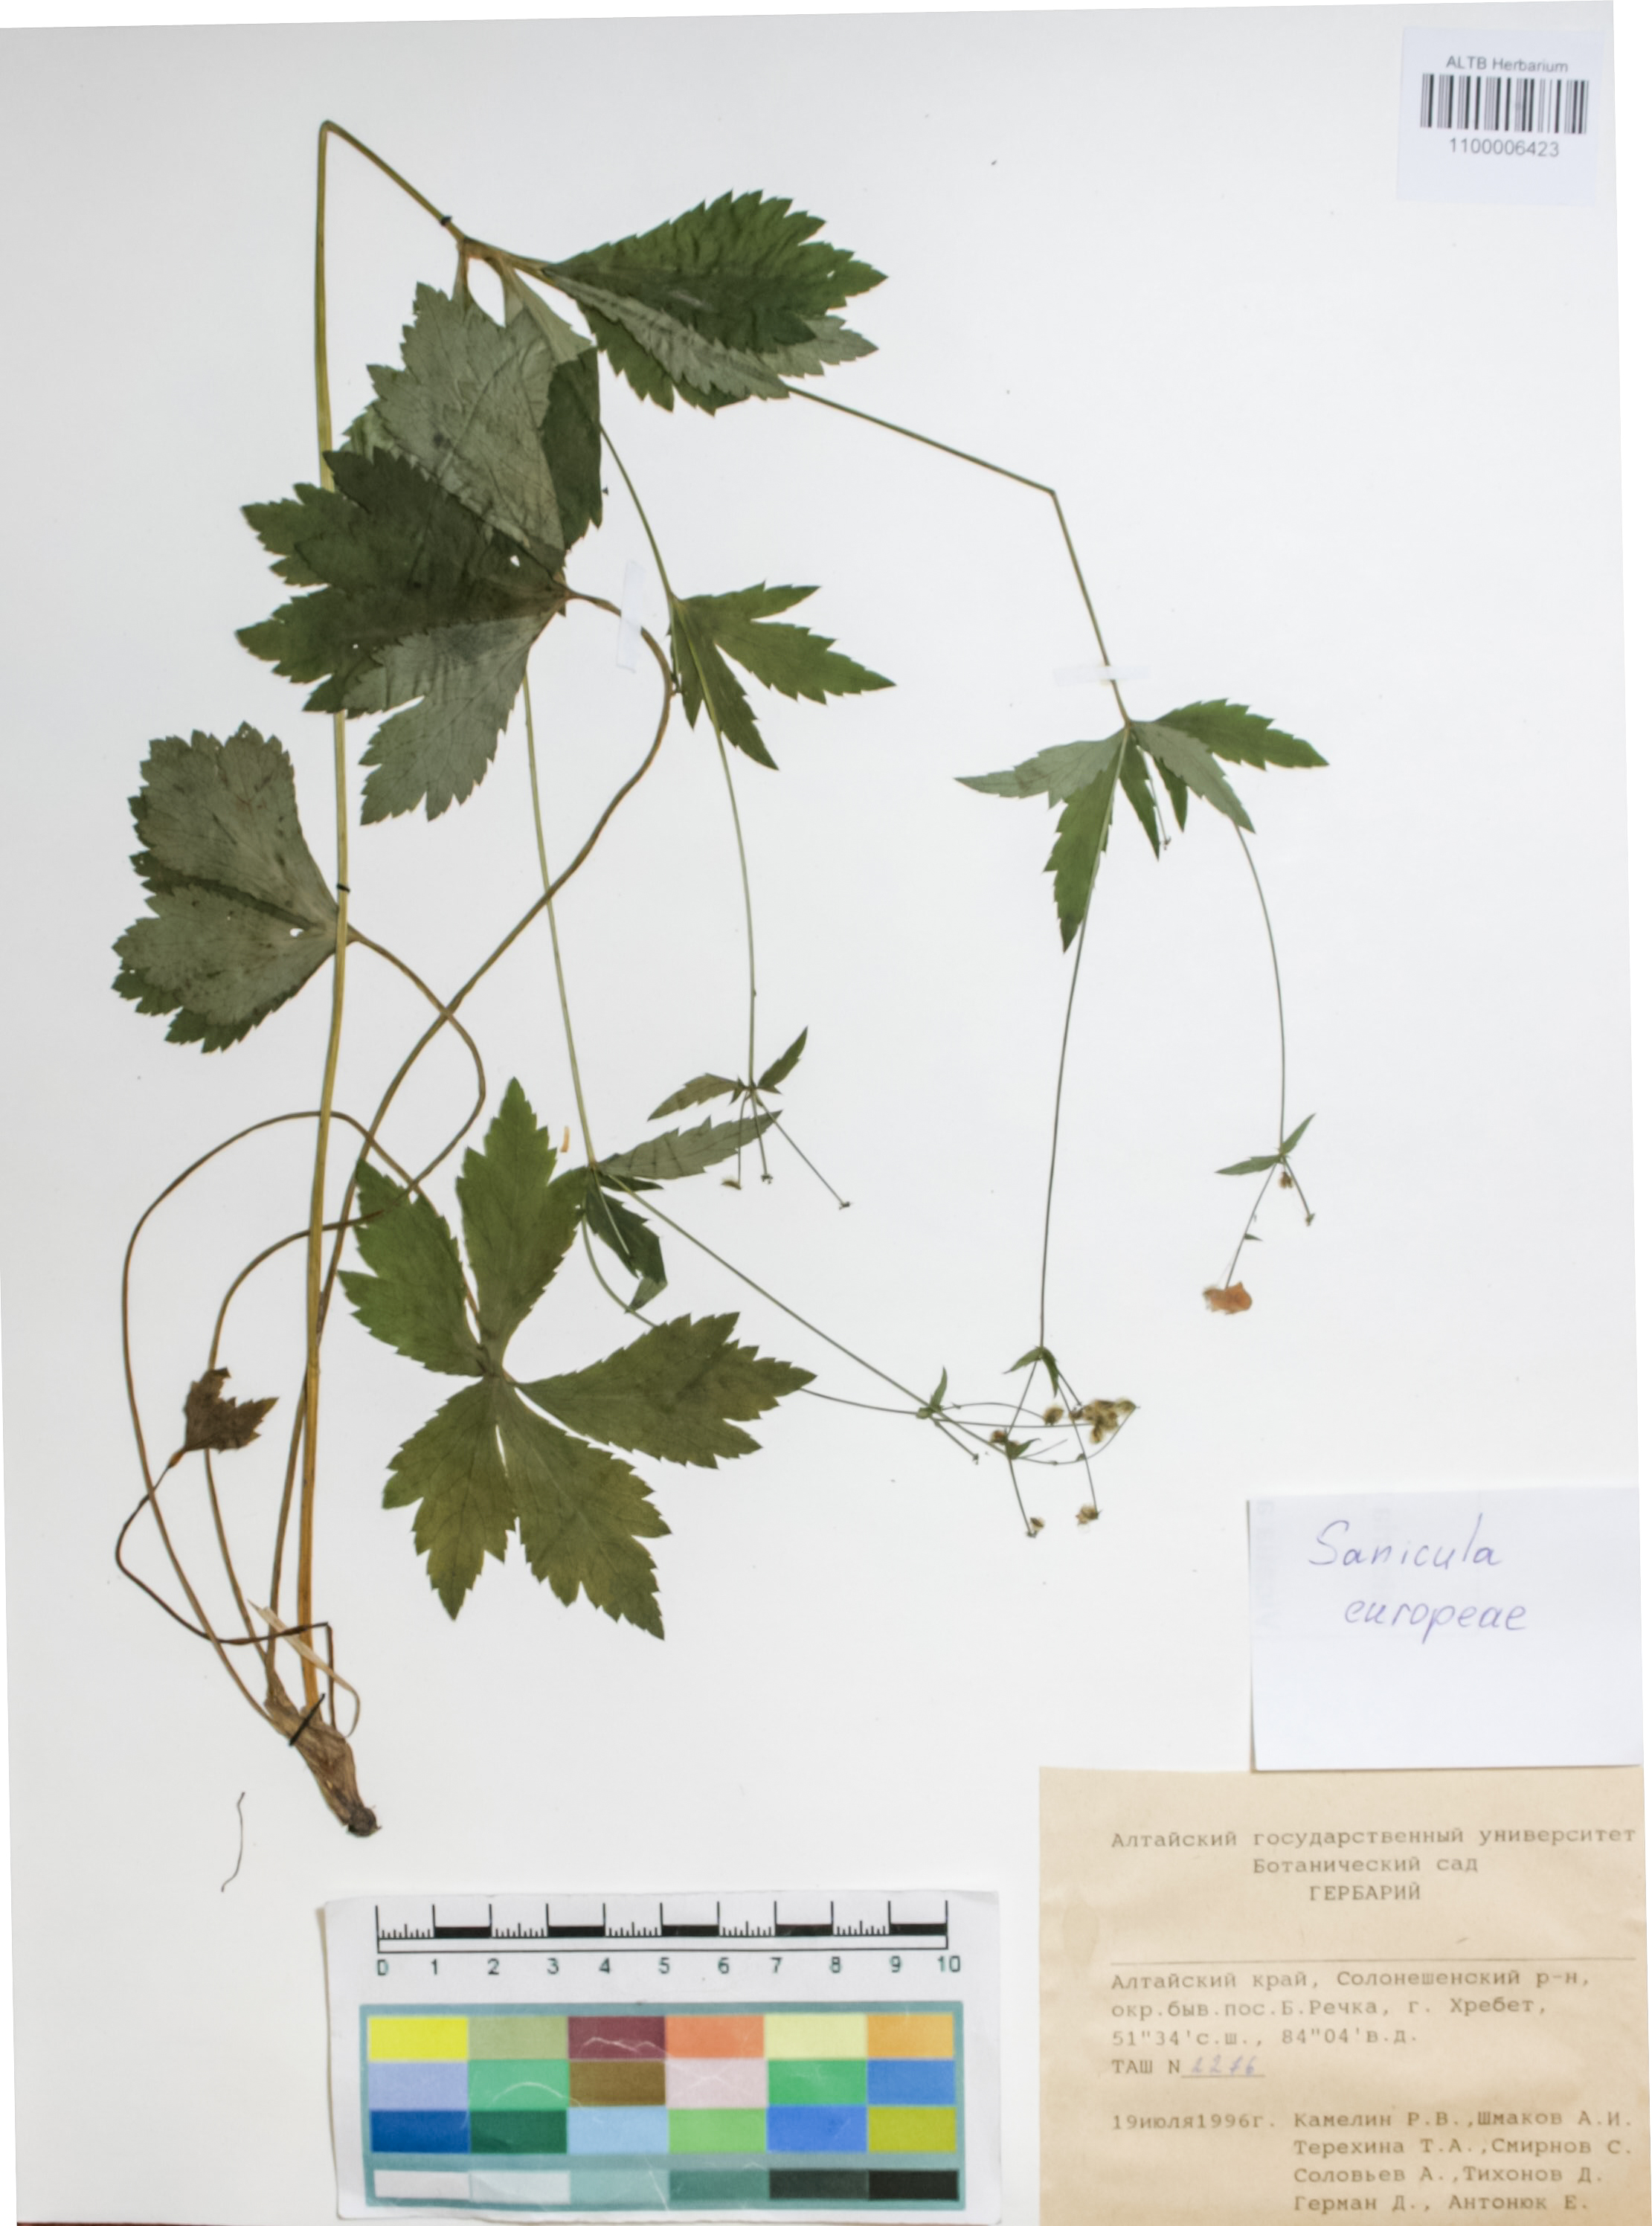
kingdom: Plantae
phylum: Tracheophyta
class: Magnoliopsida
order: Apiales
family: Apiaceae
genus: Sanicula
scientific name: Sanicula europaea
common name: Sanicle
